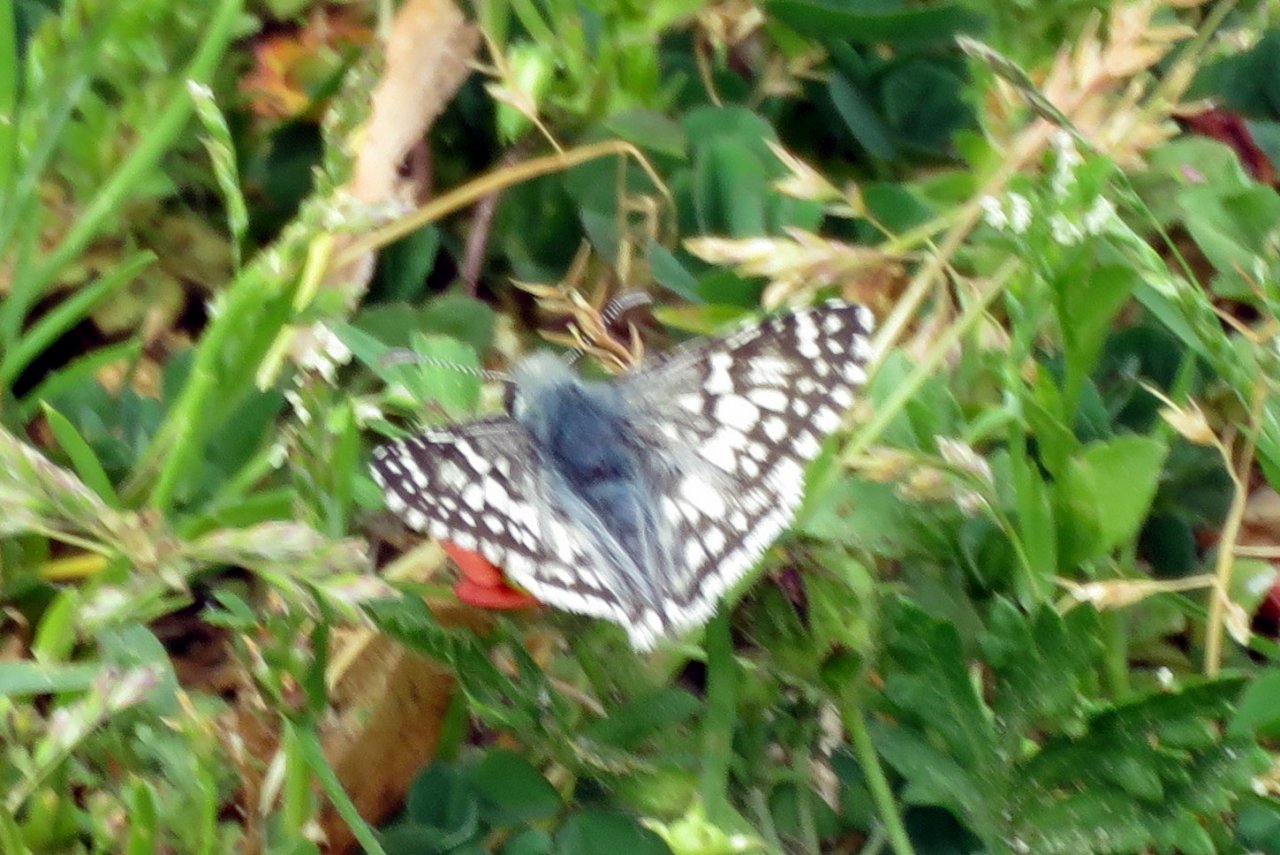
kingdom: Animalia
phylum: Arthropoda
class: Insecta
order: Lepidoptera
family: Hesperiidae
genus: Pyrgus
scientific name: Pyrgus communis
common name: Common Checkered-Skipper
